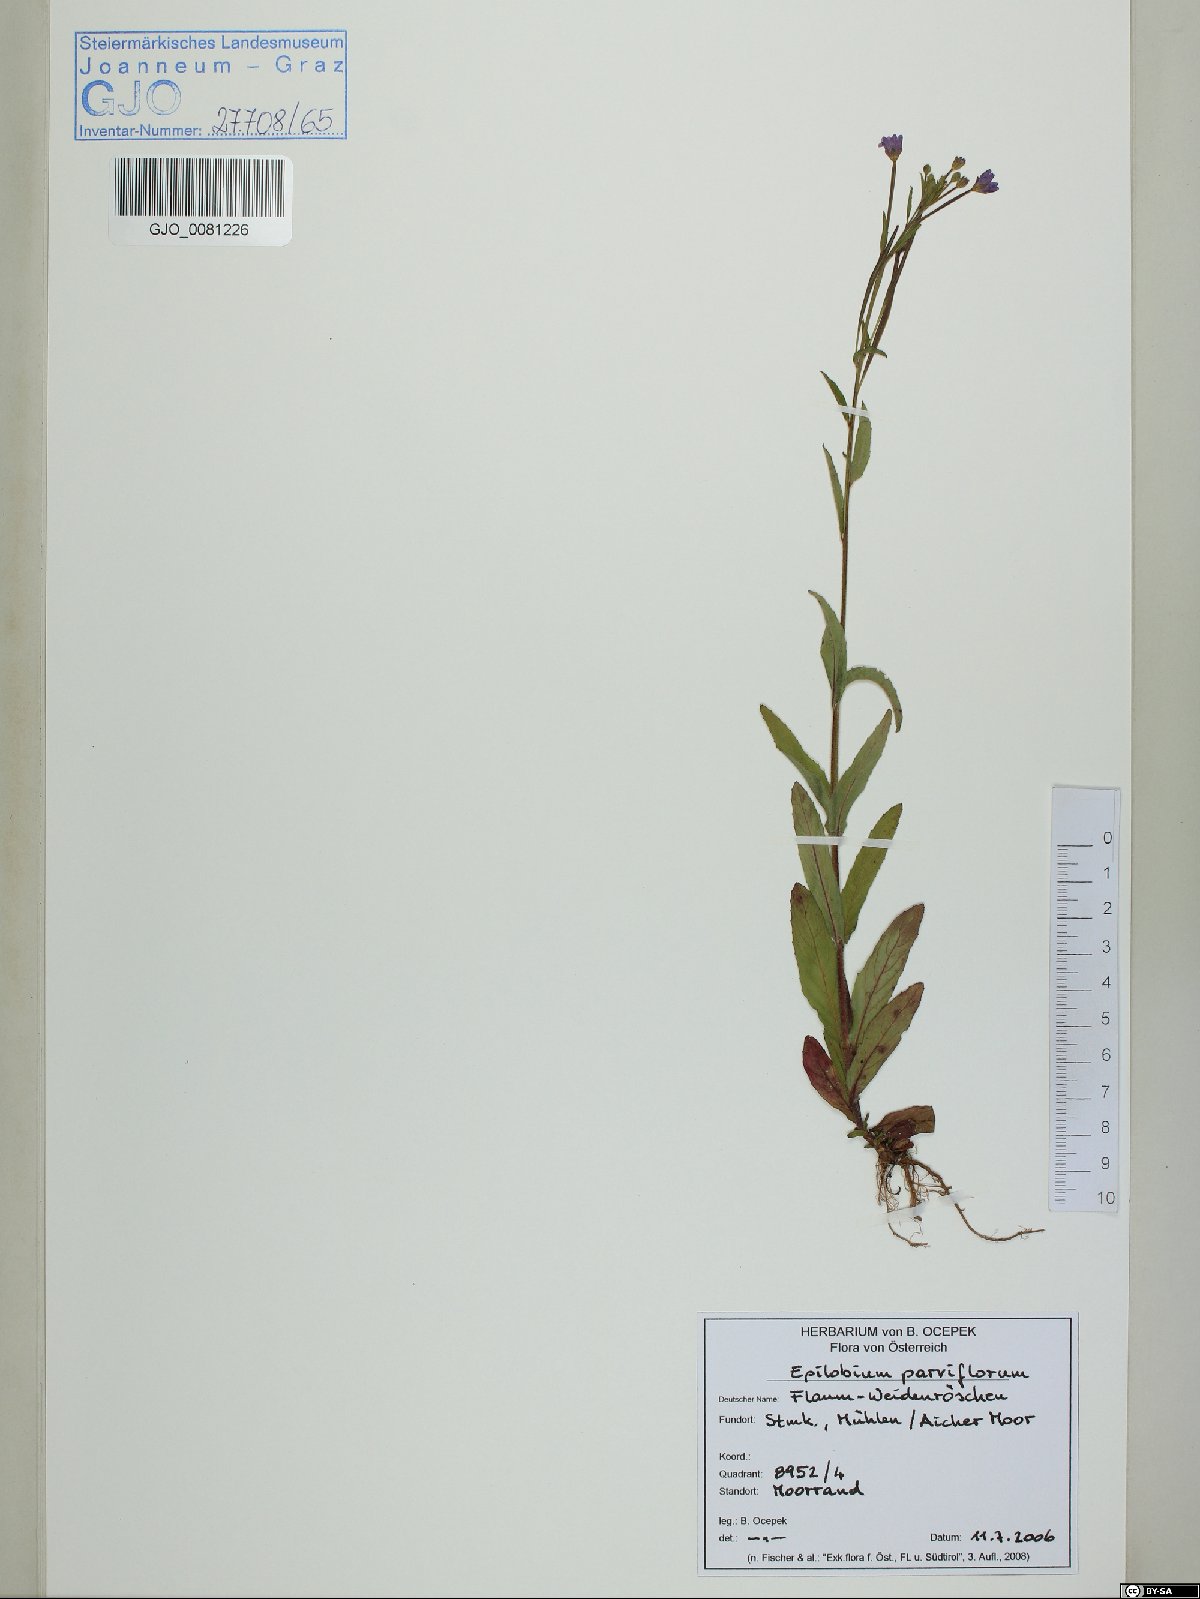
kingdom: Plantae
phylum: Tracheophyta
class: Magnoliopsida
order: Myrtales
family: Onagraceae
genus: Epilobium
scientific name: Epilobium parviflorum
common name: Hoary willowherb
